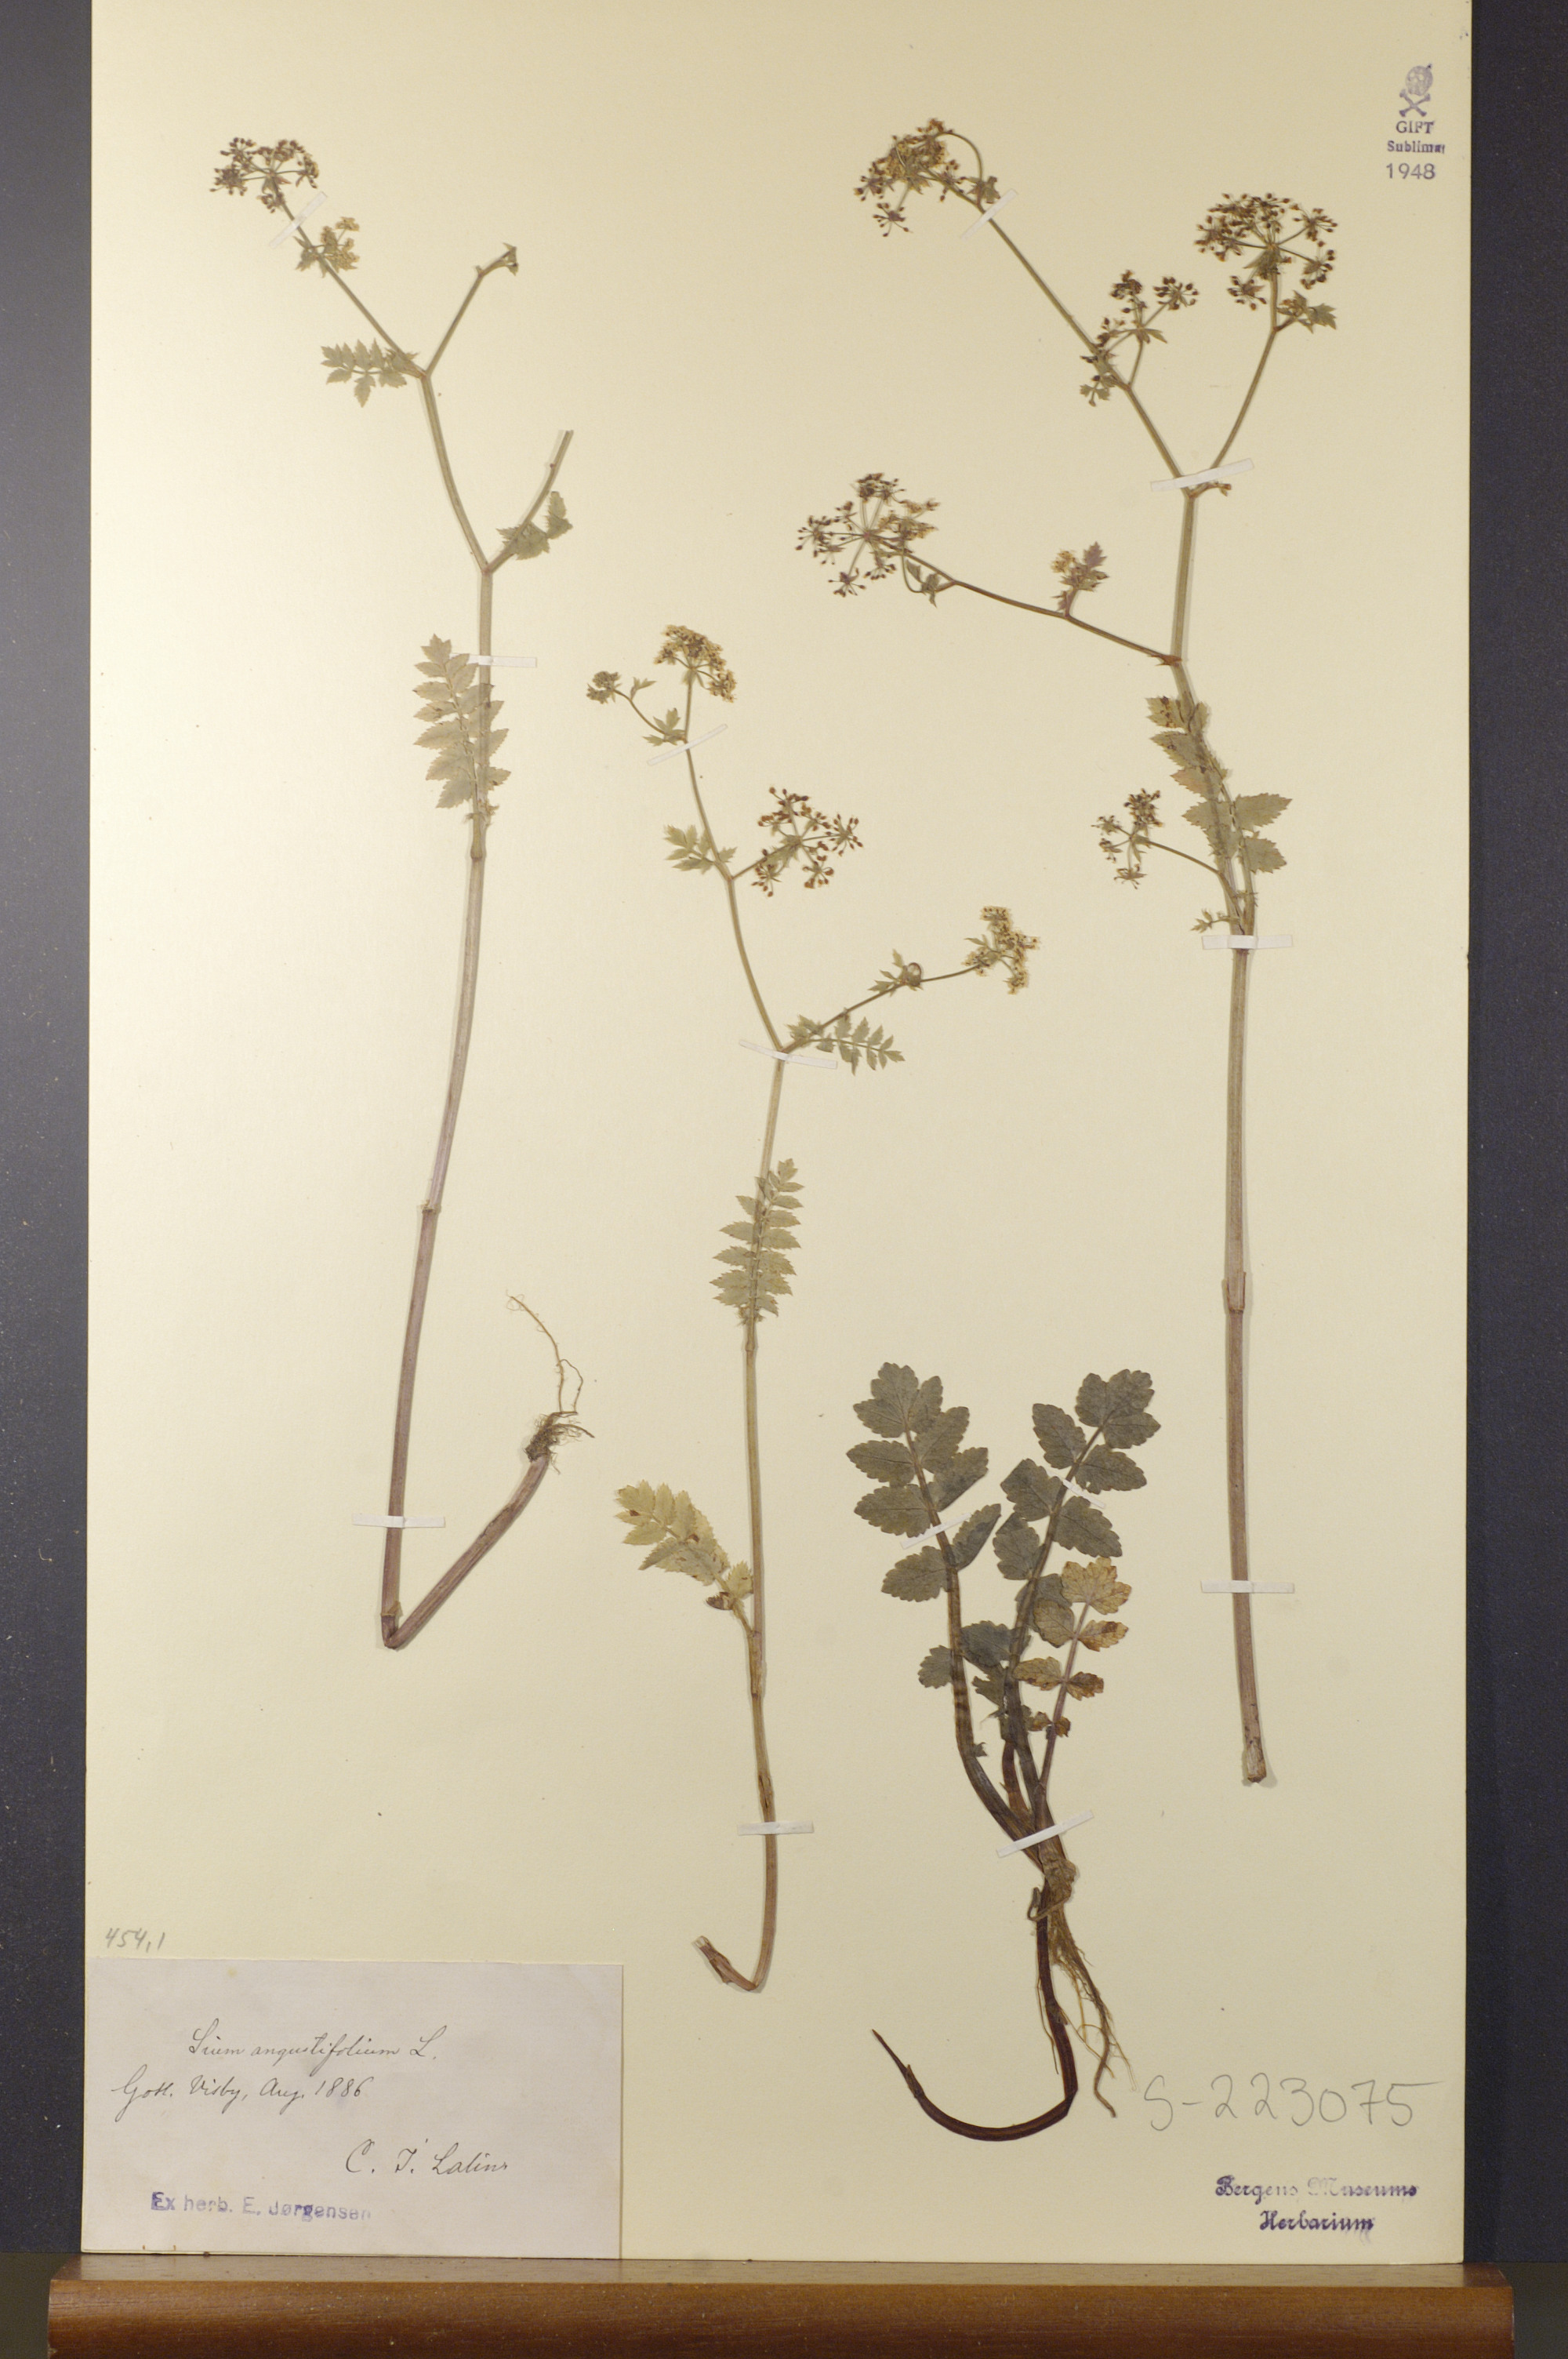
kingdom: Plantae
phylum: Tracheophyta
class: Magnoliopsida
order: Apiales
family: Apiaceae
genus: Berula
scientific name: Berula erecta
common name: Lesser water-parsnip
